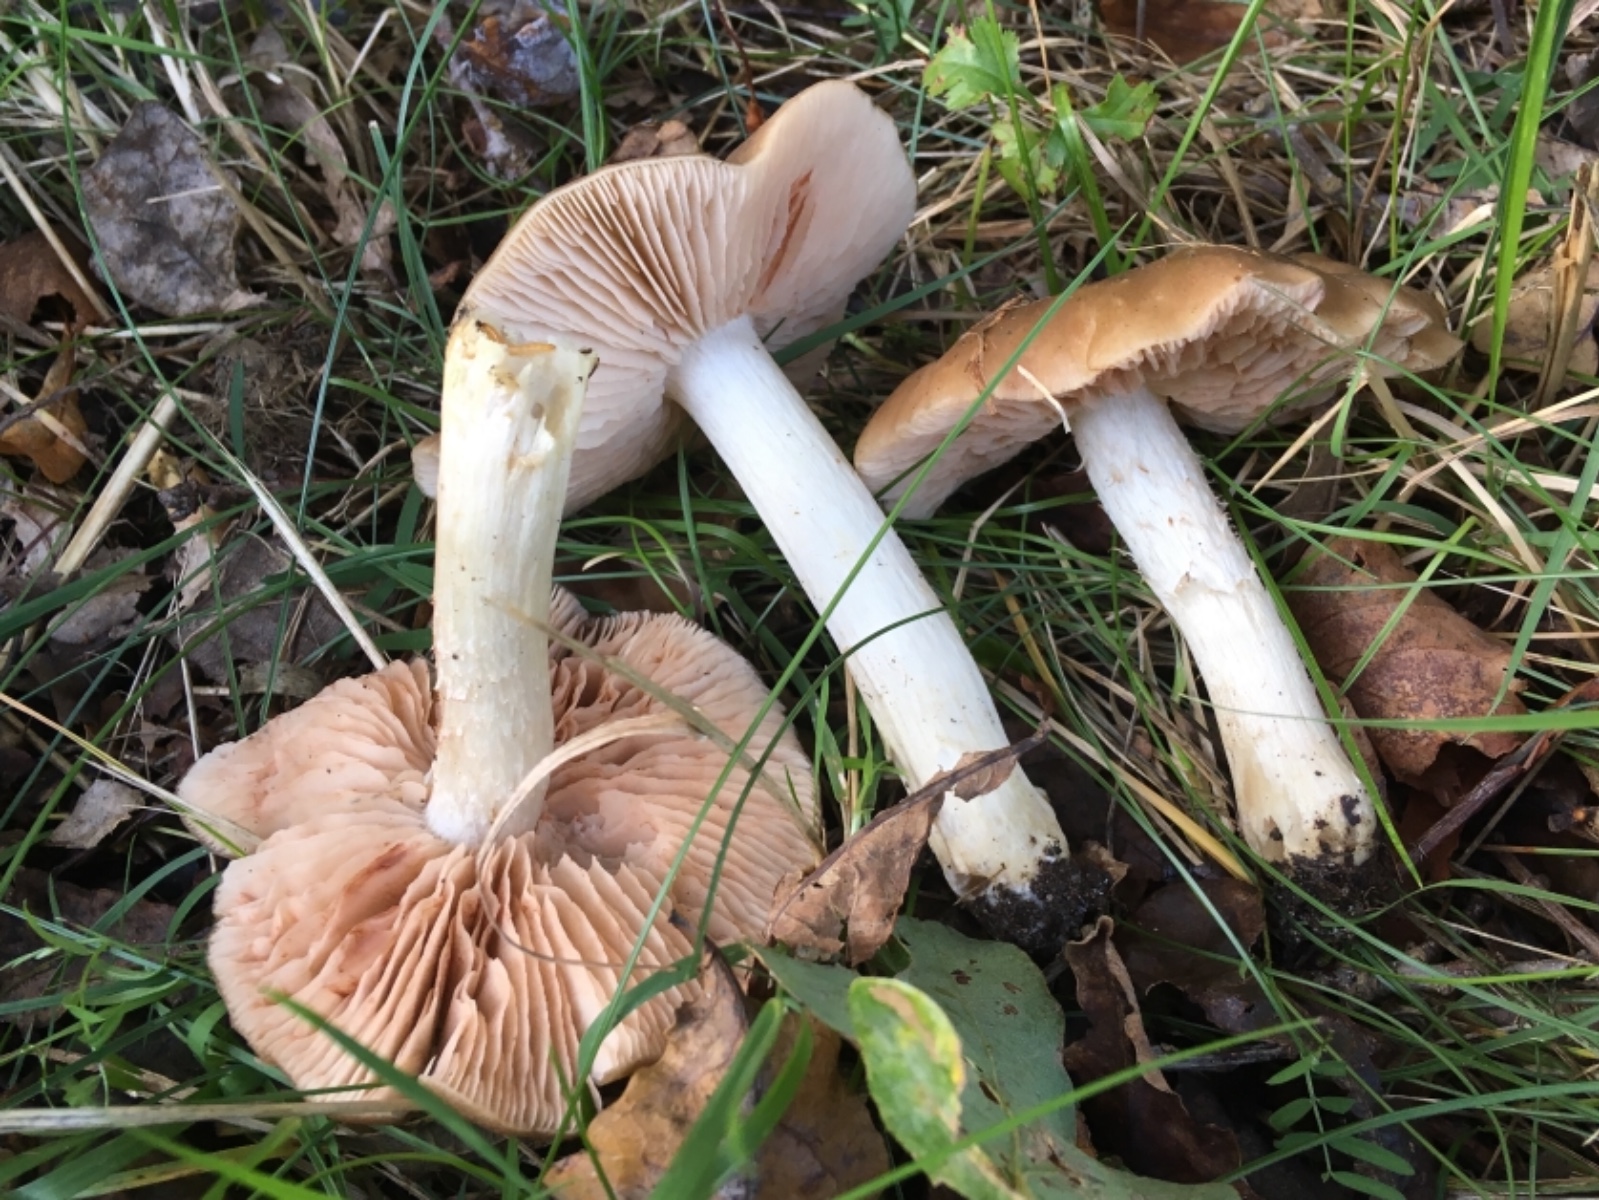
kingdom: Fungi
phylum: Basidiomycota
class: Agaricomycetes
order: Agaricales
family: Entolomataceae
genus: Entoloma
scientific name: Entoloma
